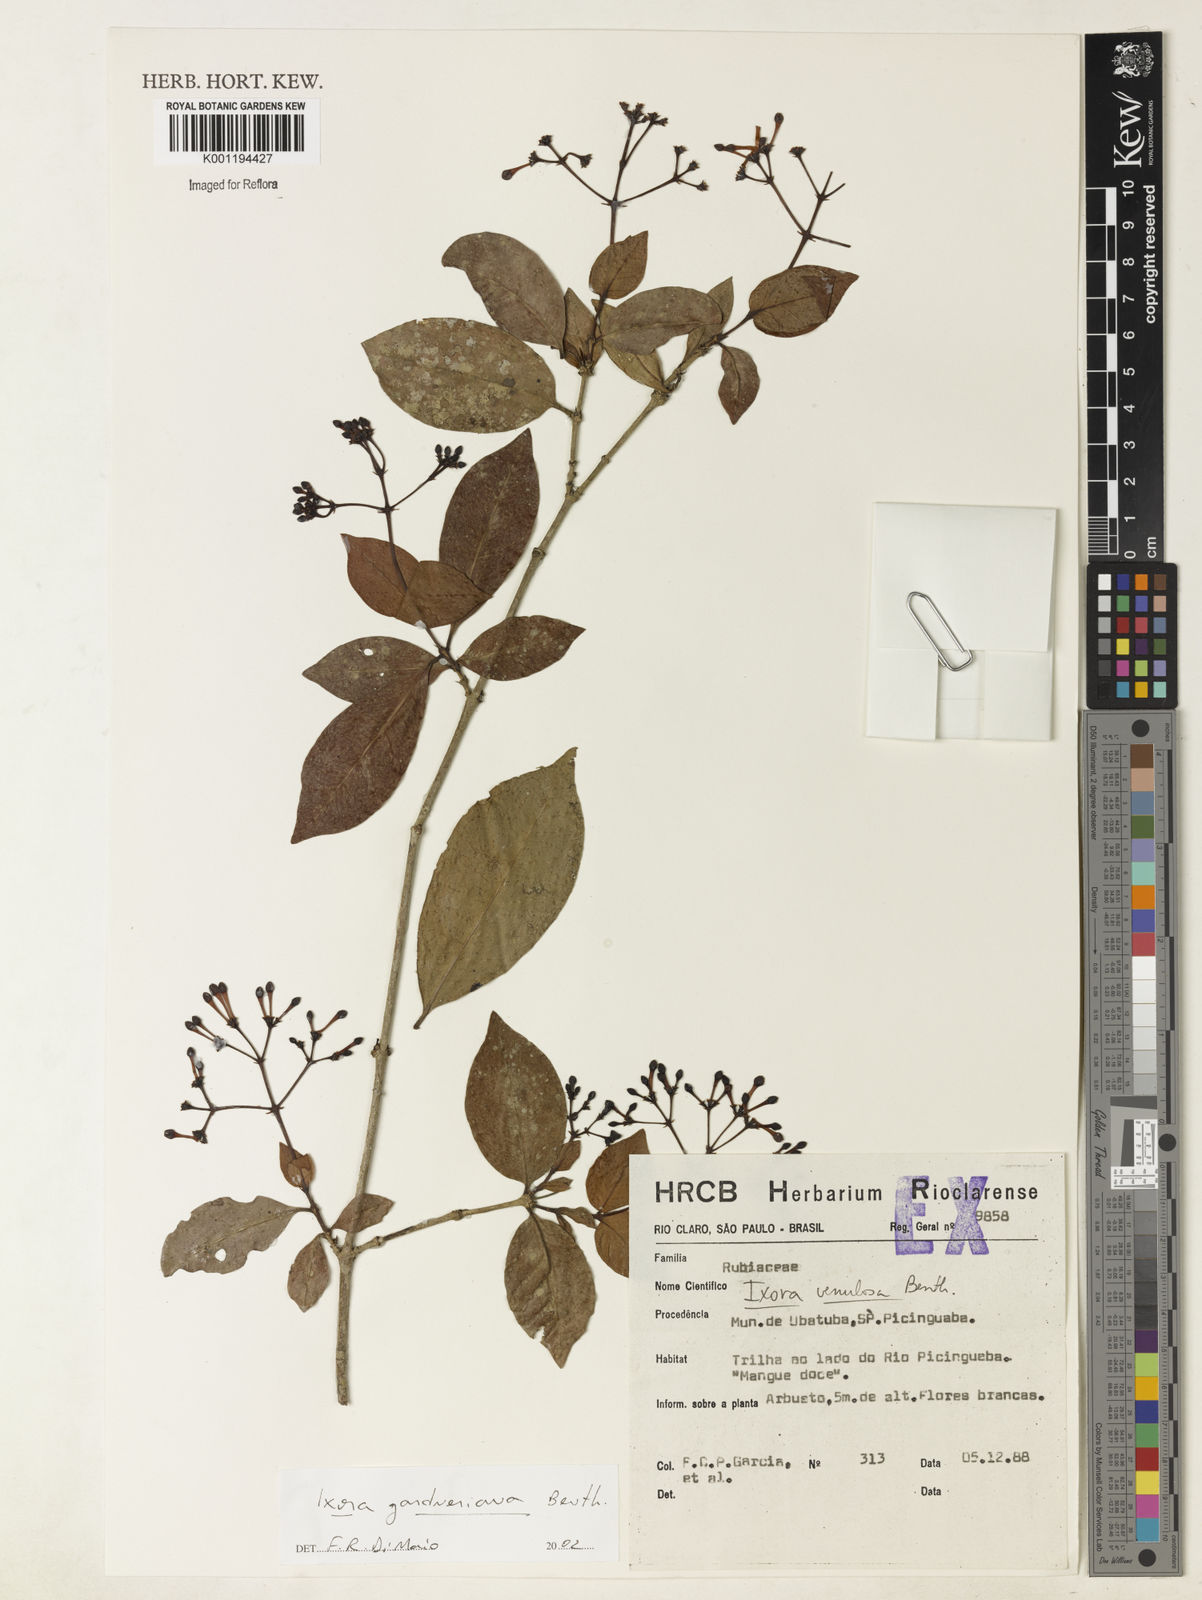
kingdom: Plantae
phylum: Tracheophyta
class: Magnoliopsida
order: Gentianales
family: Rubiaceae
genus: Ixora
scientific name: Ixora gardneriana
